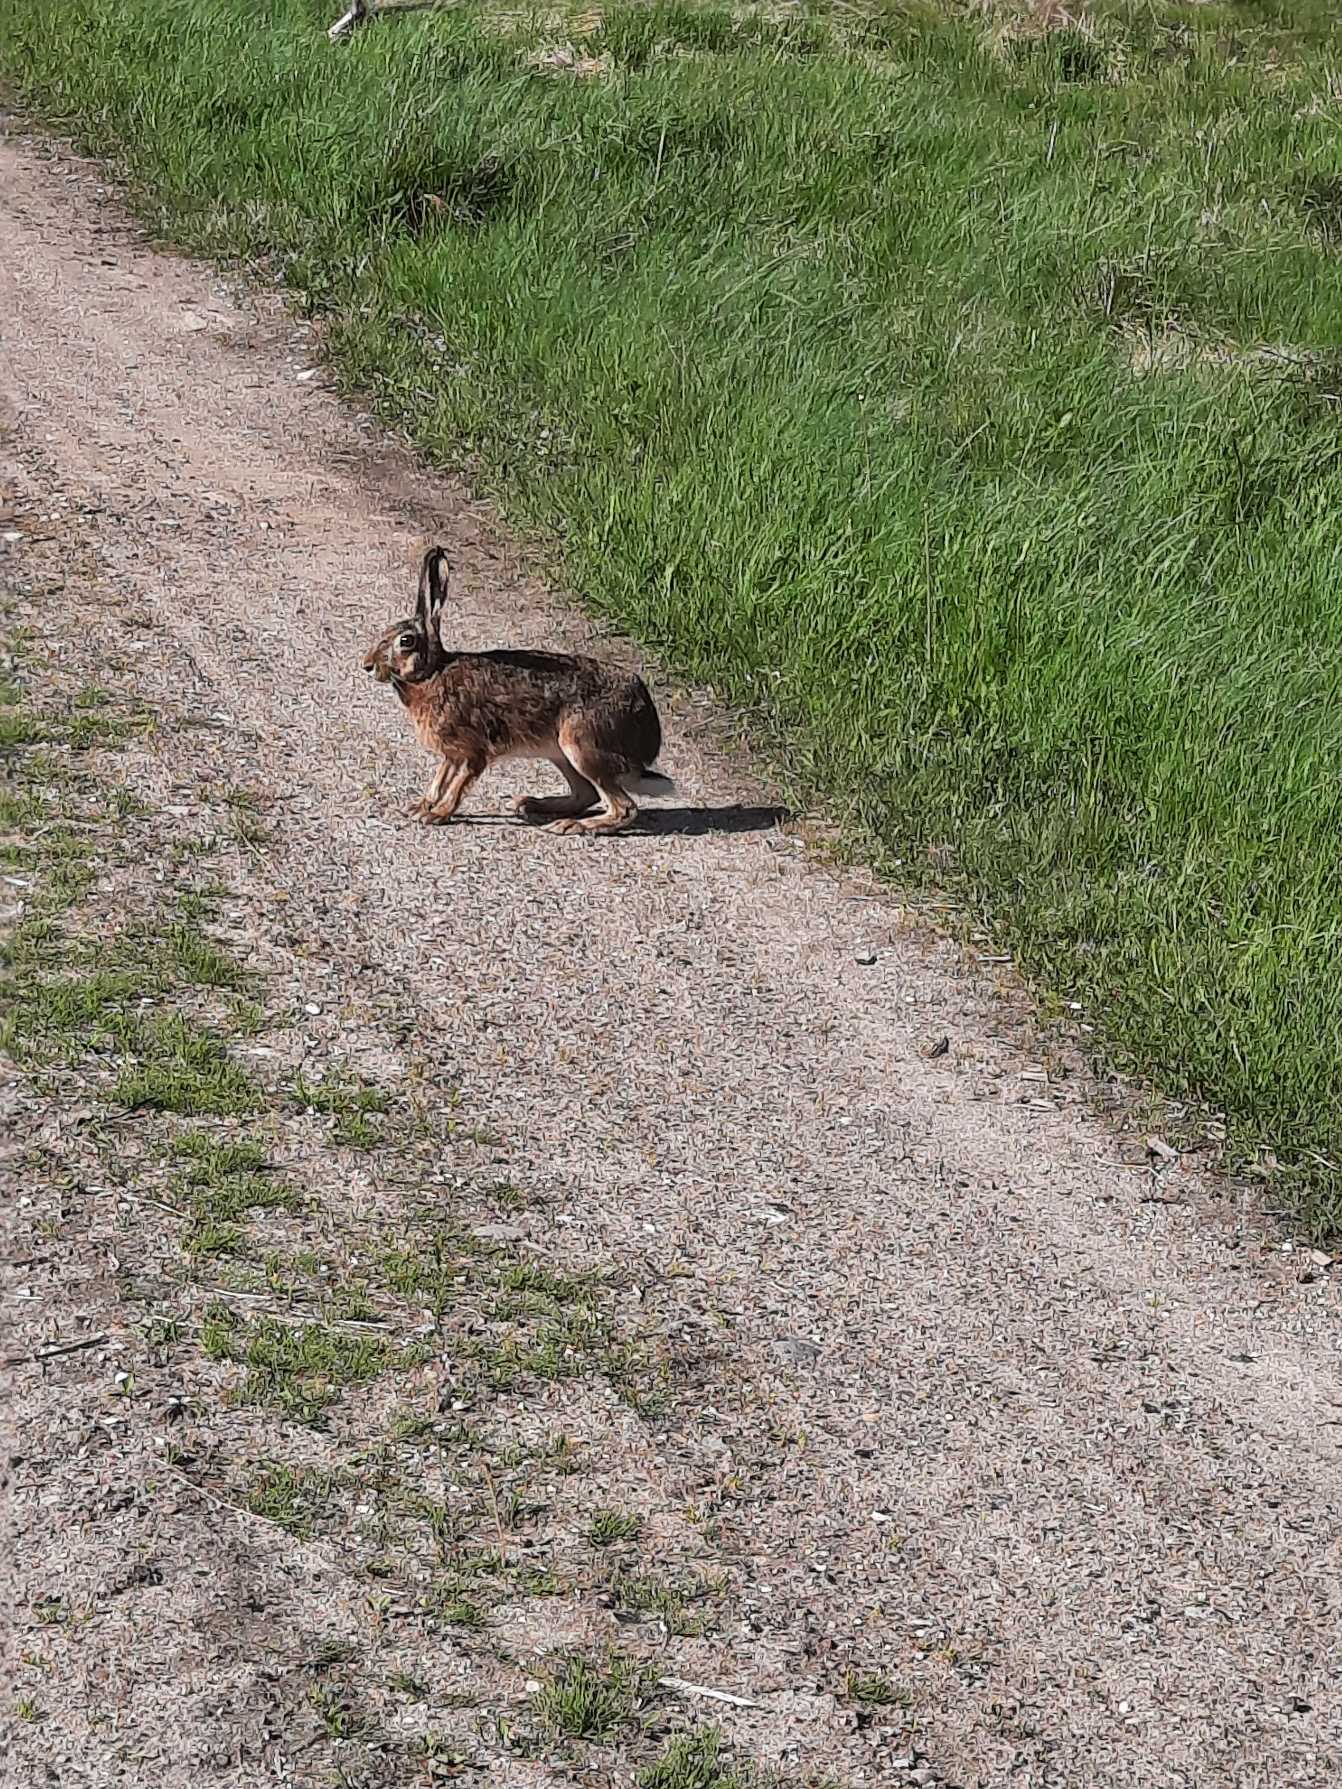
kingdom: Animalia
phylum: Chordata
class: Mammalia
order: Lagomorpha
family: Leporidae
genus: Lepus
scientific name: Lepus europaeus
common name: Hare
